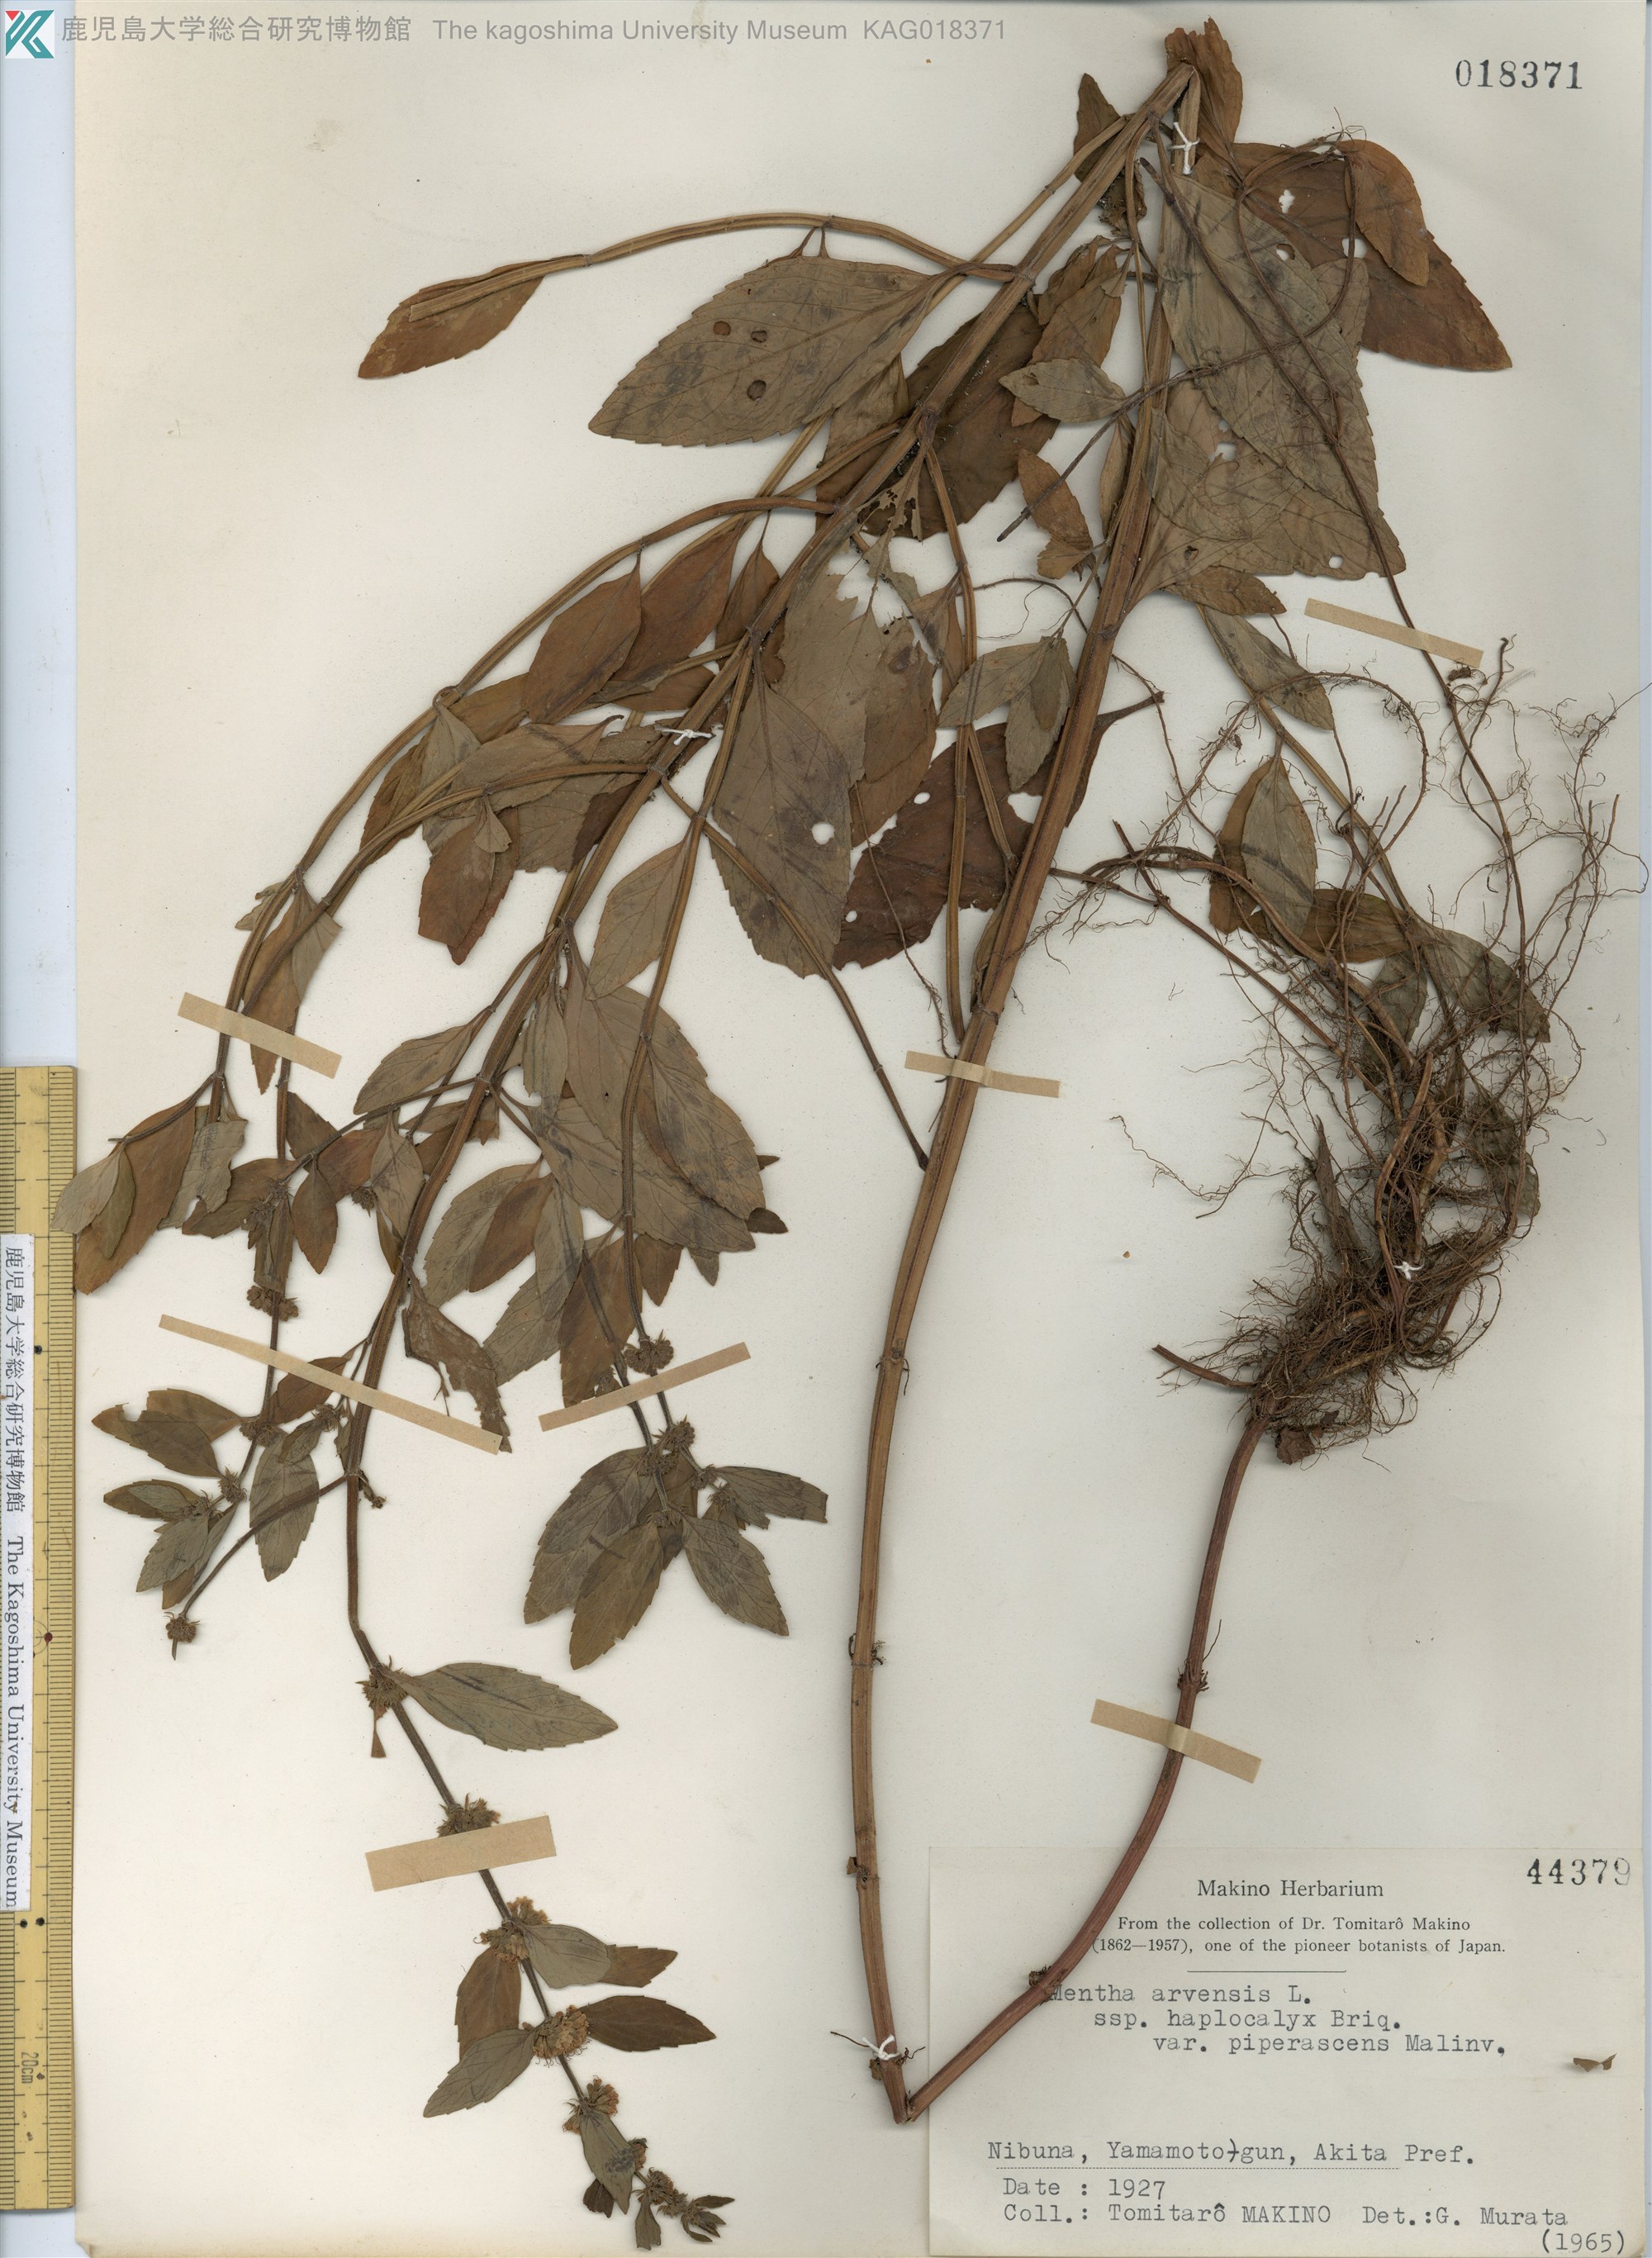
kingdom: Plantae
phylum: Tracheophyta
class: Magnoliopsida
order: Lamiales
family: Lamiaceae
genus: Mentha
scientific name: Mentha canadensis
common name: ハッカ
